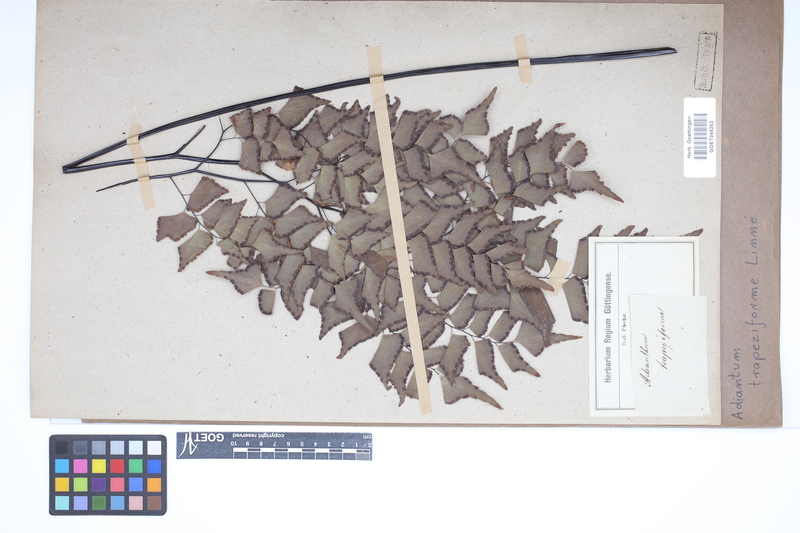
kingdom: Plantae
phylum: Tracheophyta
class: Polypodiopsida
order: Polypodiales
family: Pteridaceae
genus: Adiantum
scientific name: Adiantum trapeziforme
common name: Diamond maidenhair
